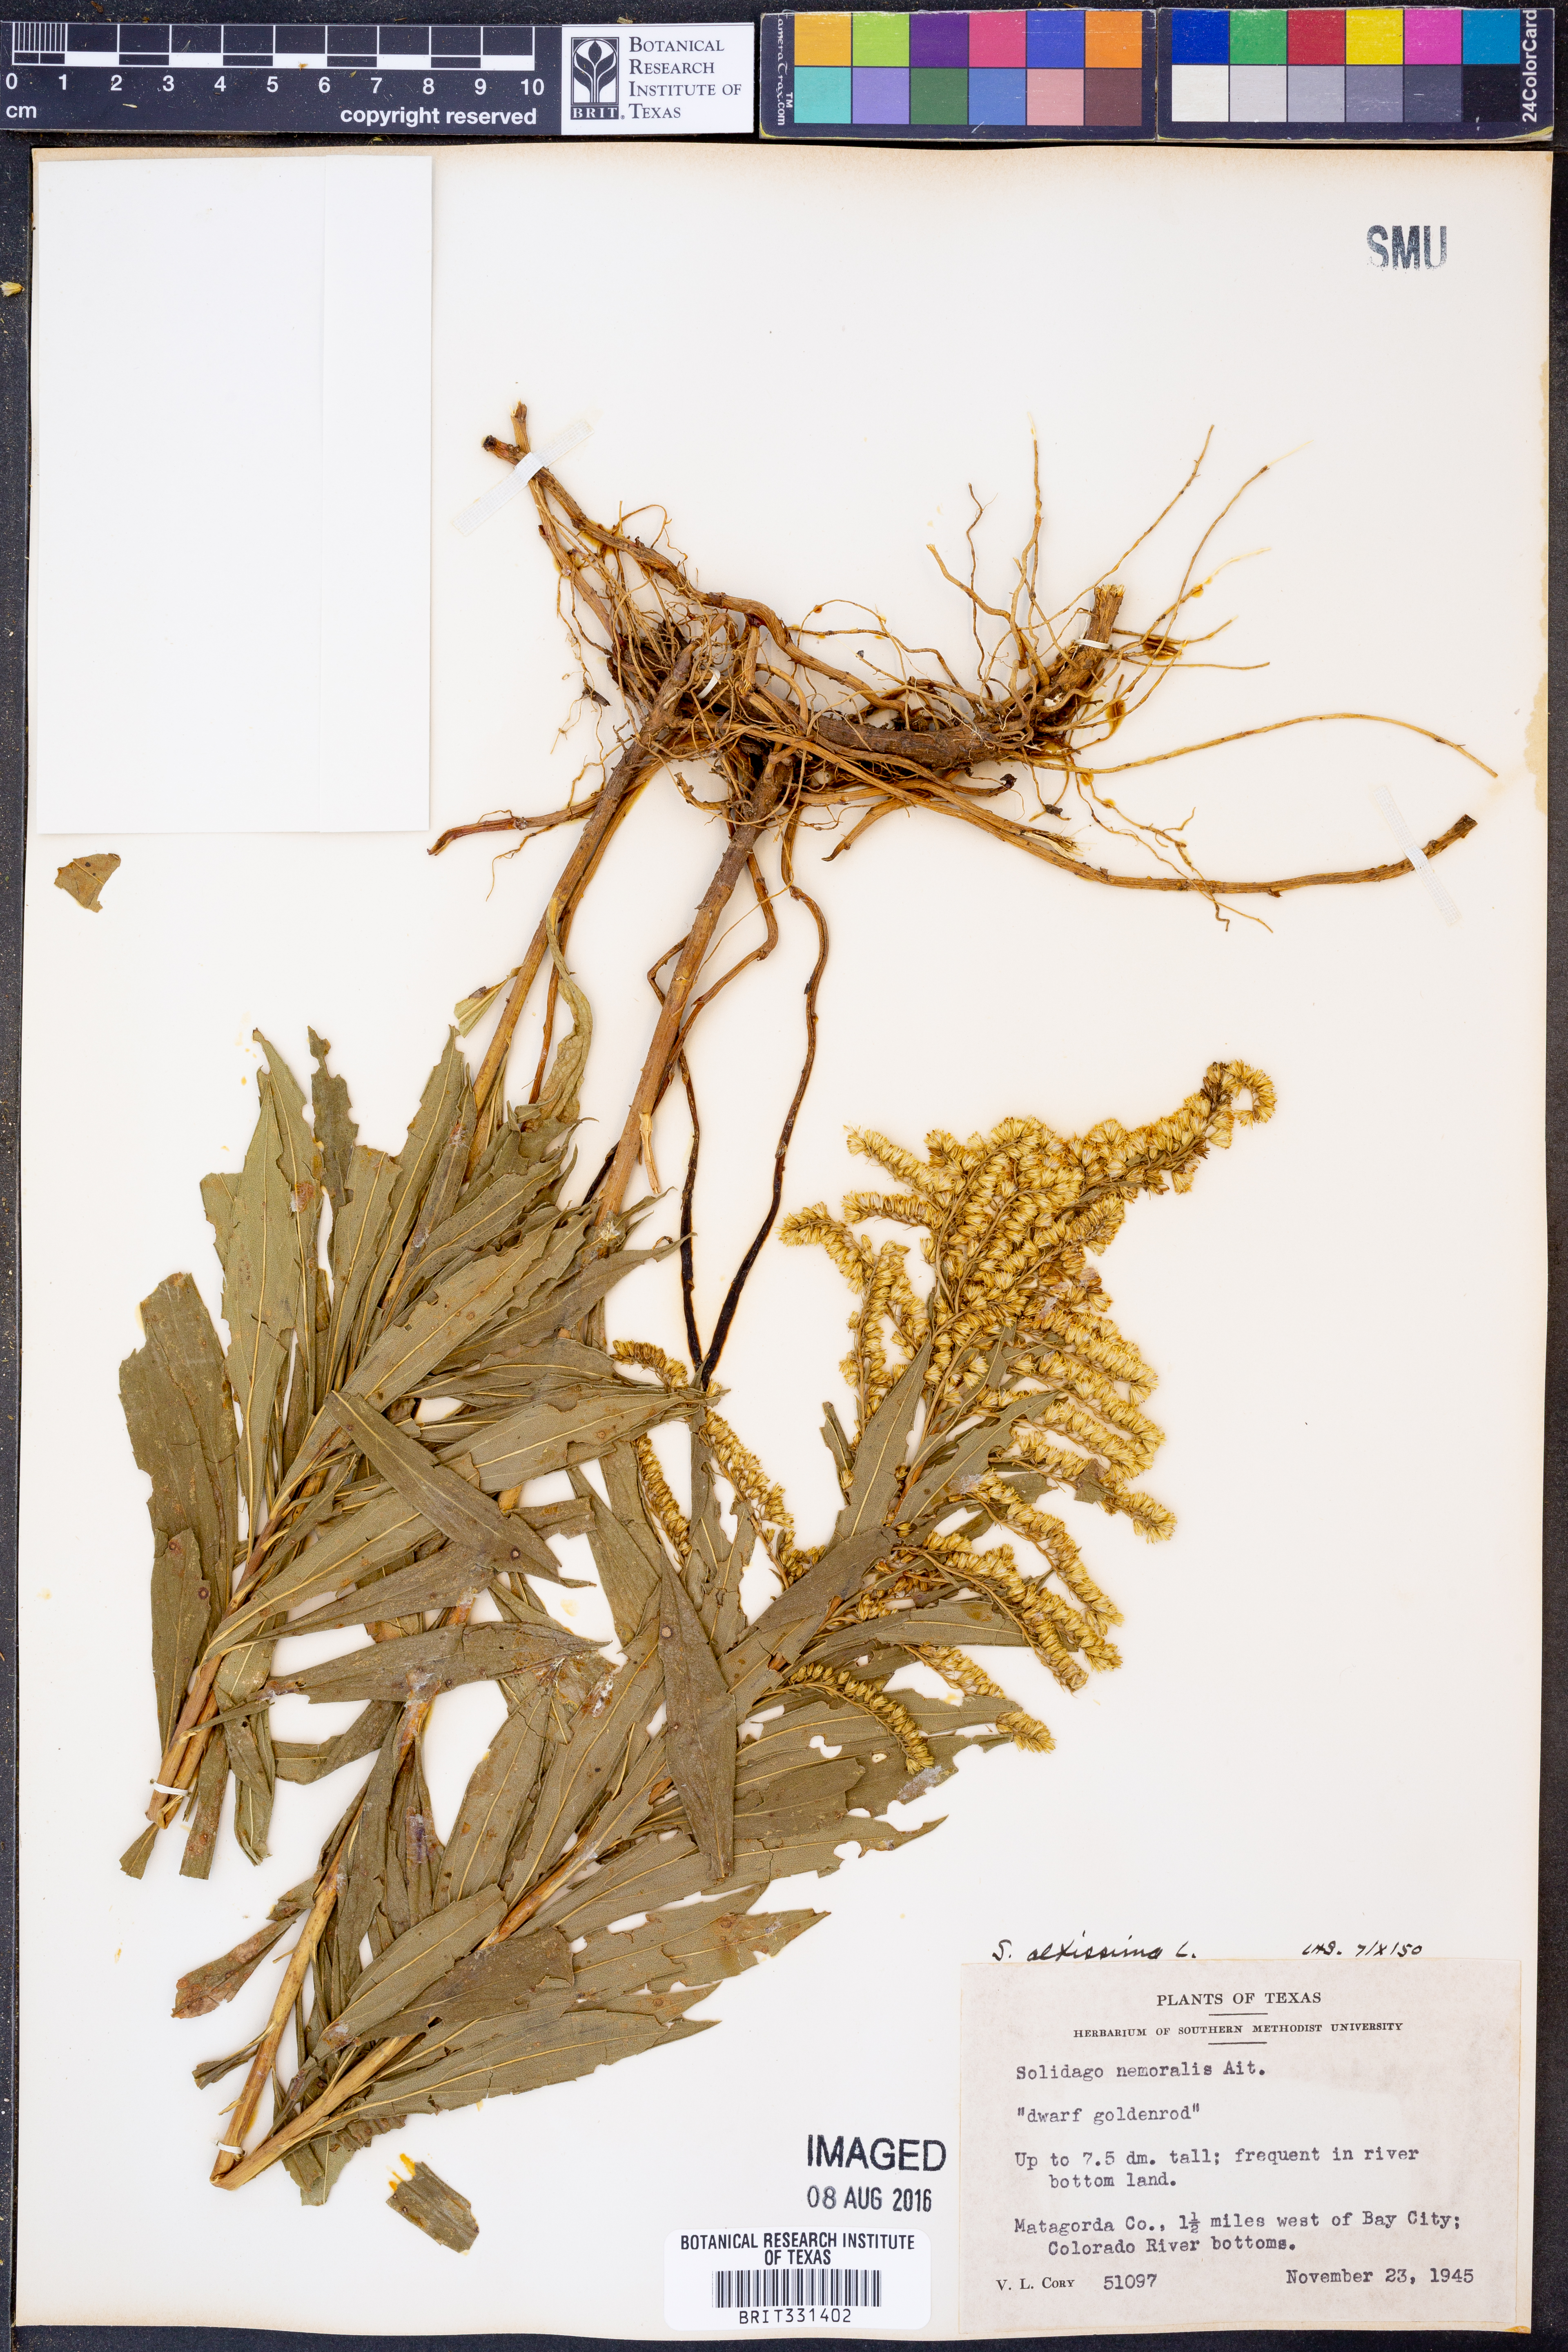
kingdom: Plantae
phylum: Tracheophyta
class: Magnoliopsida
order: Asterales
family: Asteraceae
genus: Solidago
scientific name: Solidago altissima
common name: Late goldenrod
